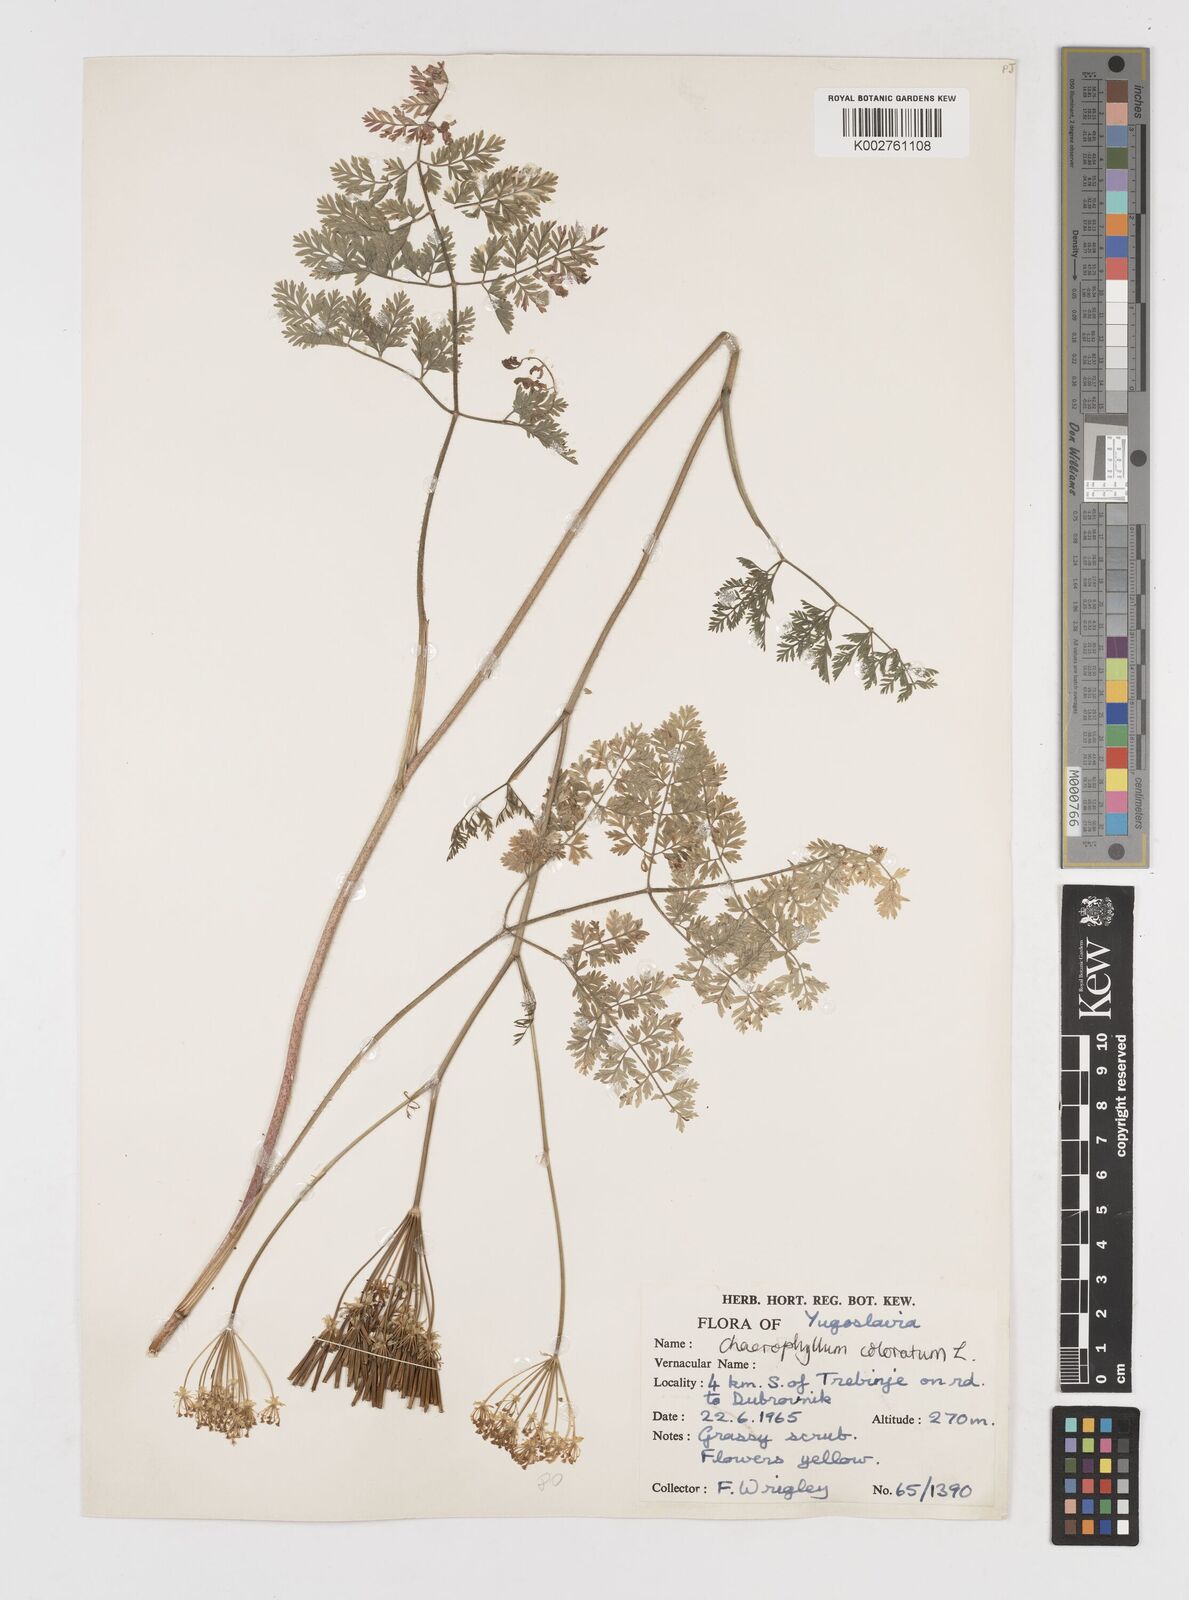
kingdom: Plantae
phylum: Tracheophyta
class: Magnoliopsida
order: Apiales
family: Apiaceae
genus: Chaerophyllum
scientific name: Chaerophyllum coloratum
